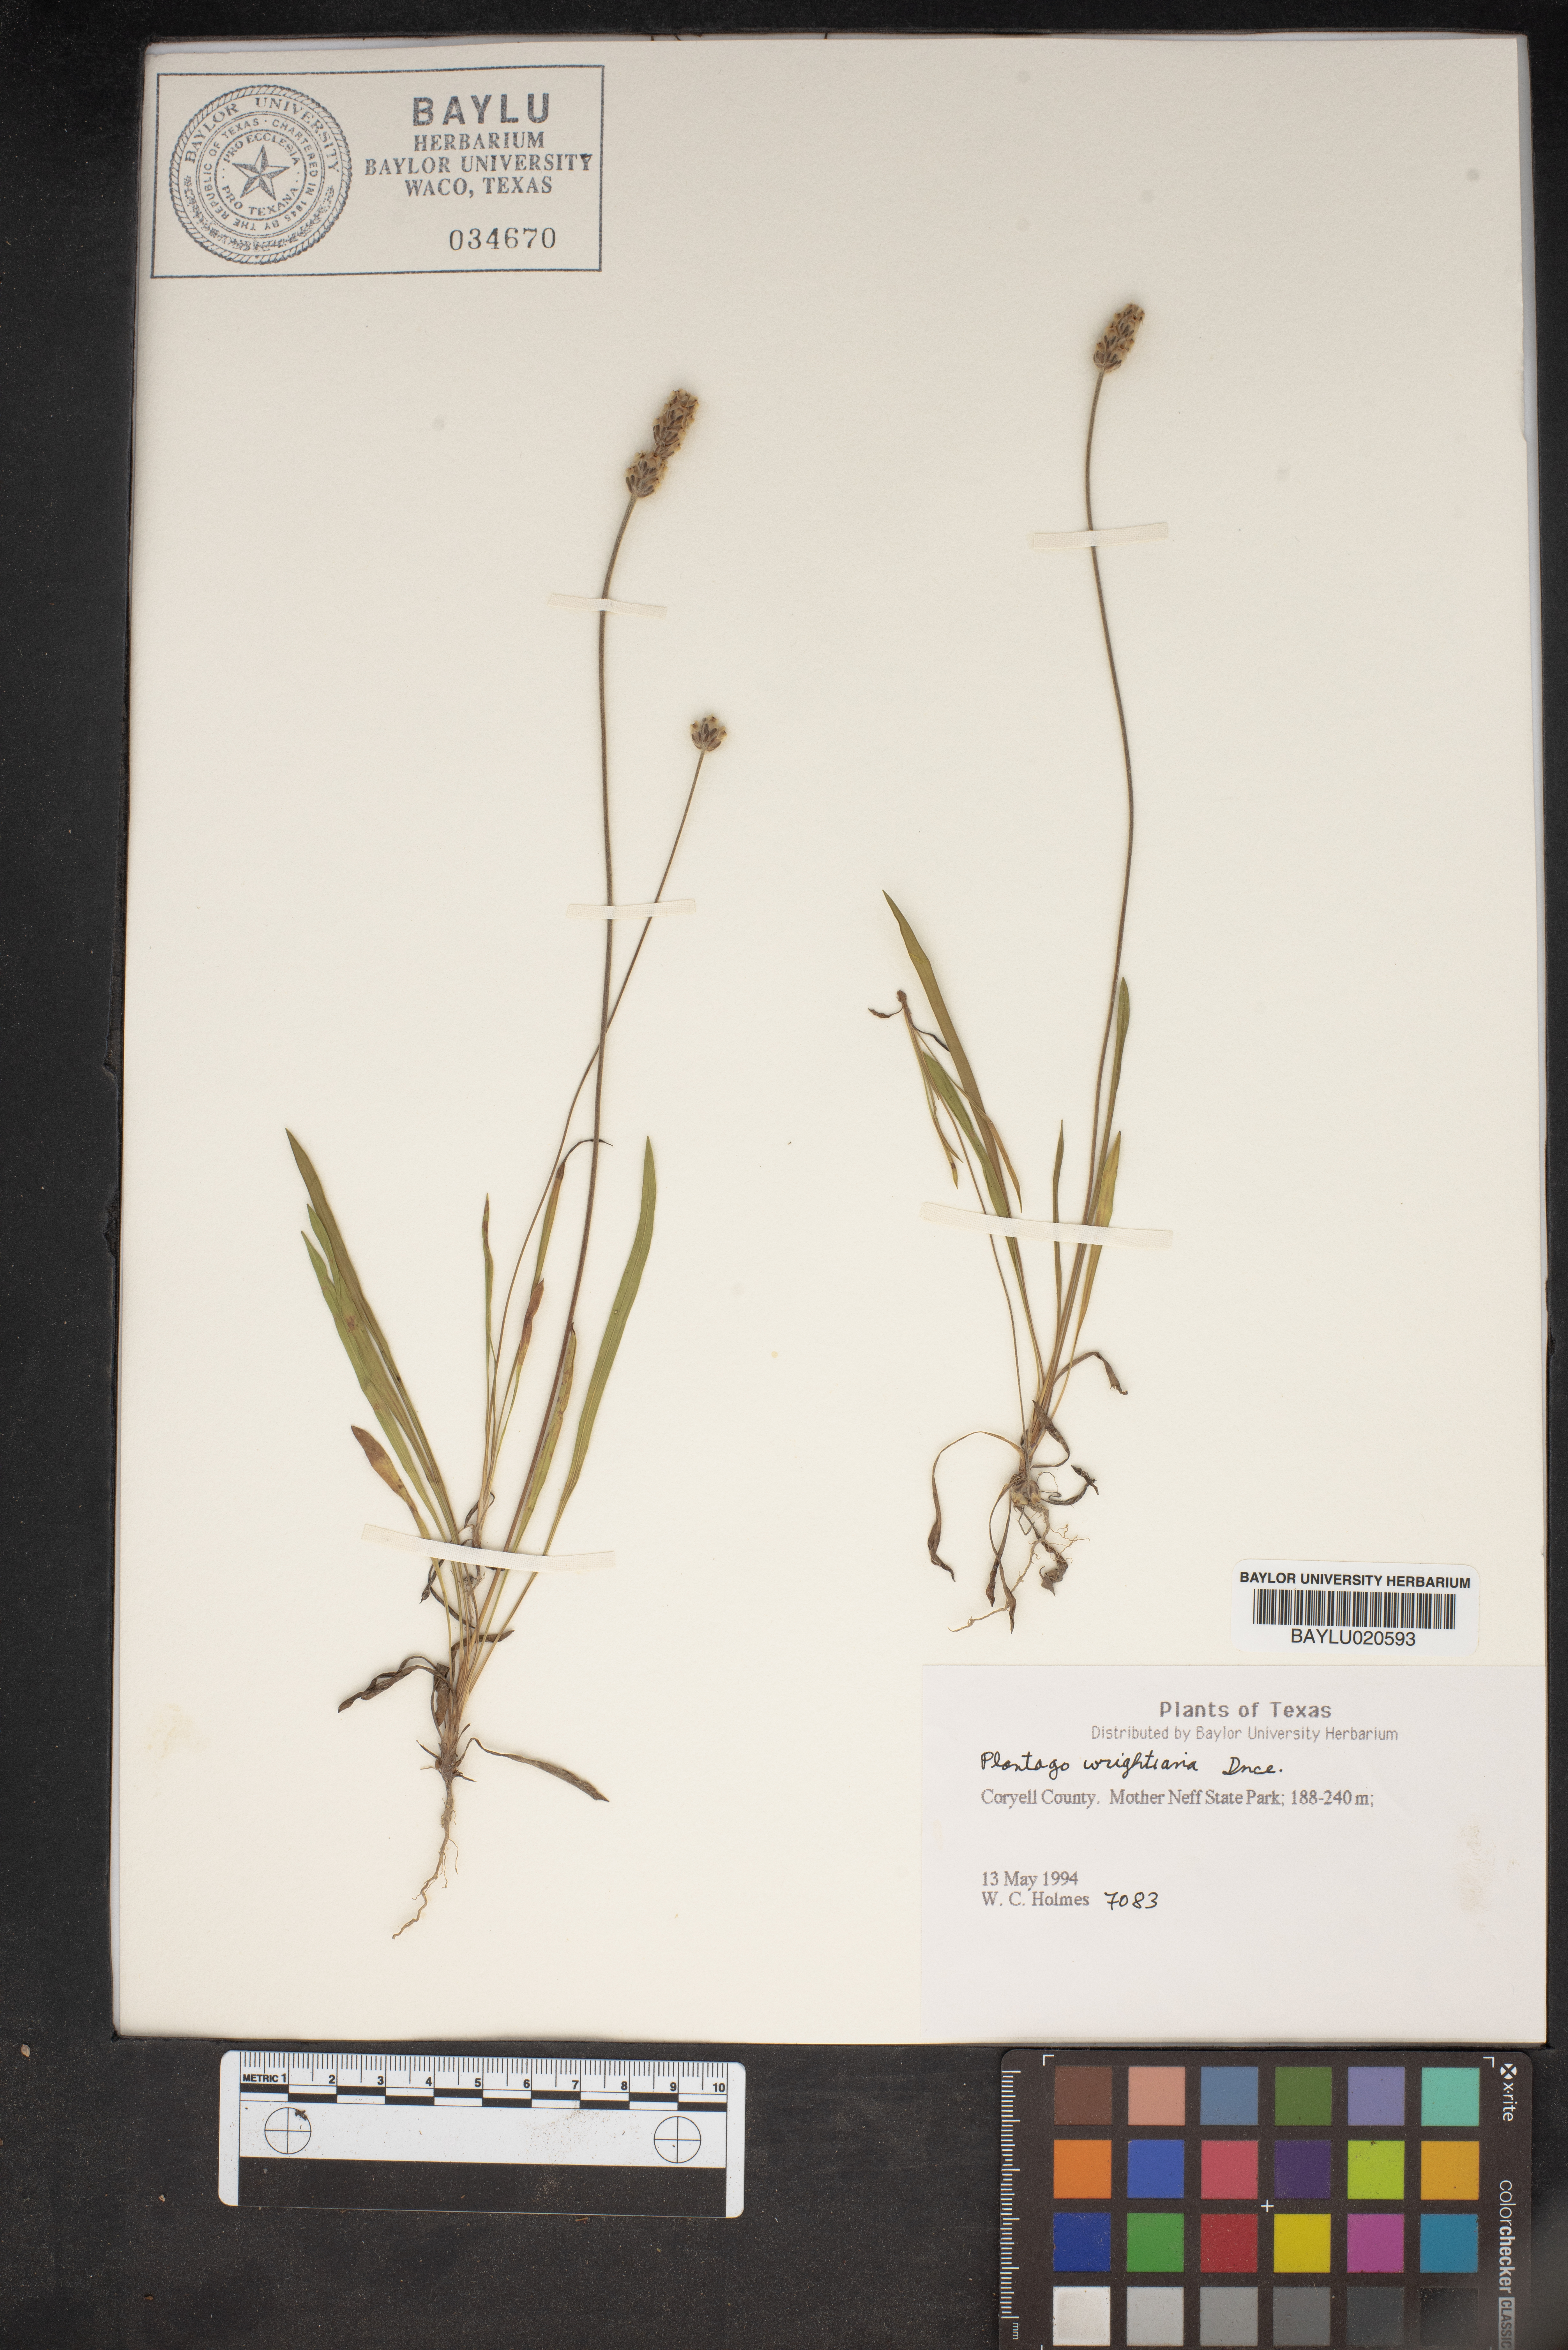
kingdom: Plantae
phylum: Tracheophyta
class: Magnoliopsida
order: Lamiales
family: Plantaginaceae
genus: Plantago
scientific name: Plantago wrightiana
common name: Wright's plantain
